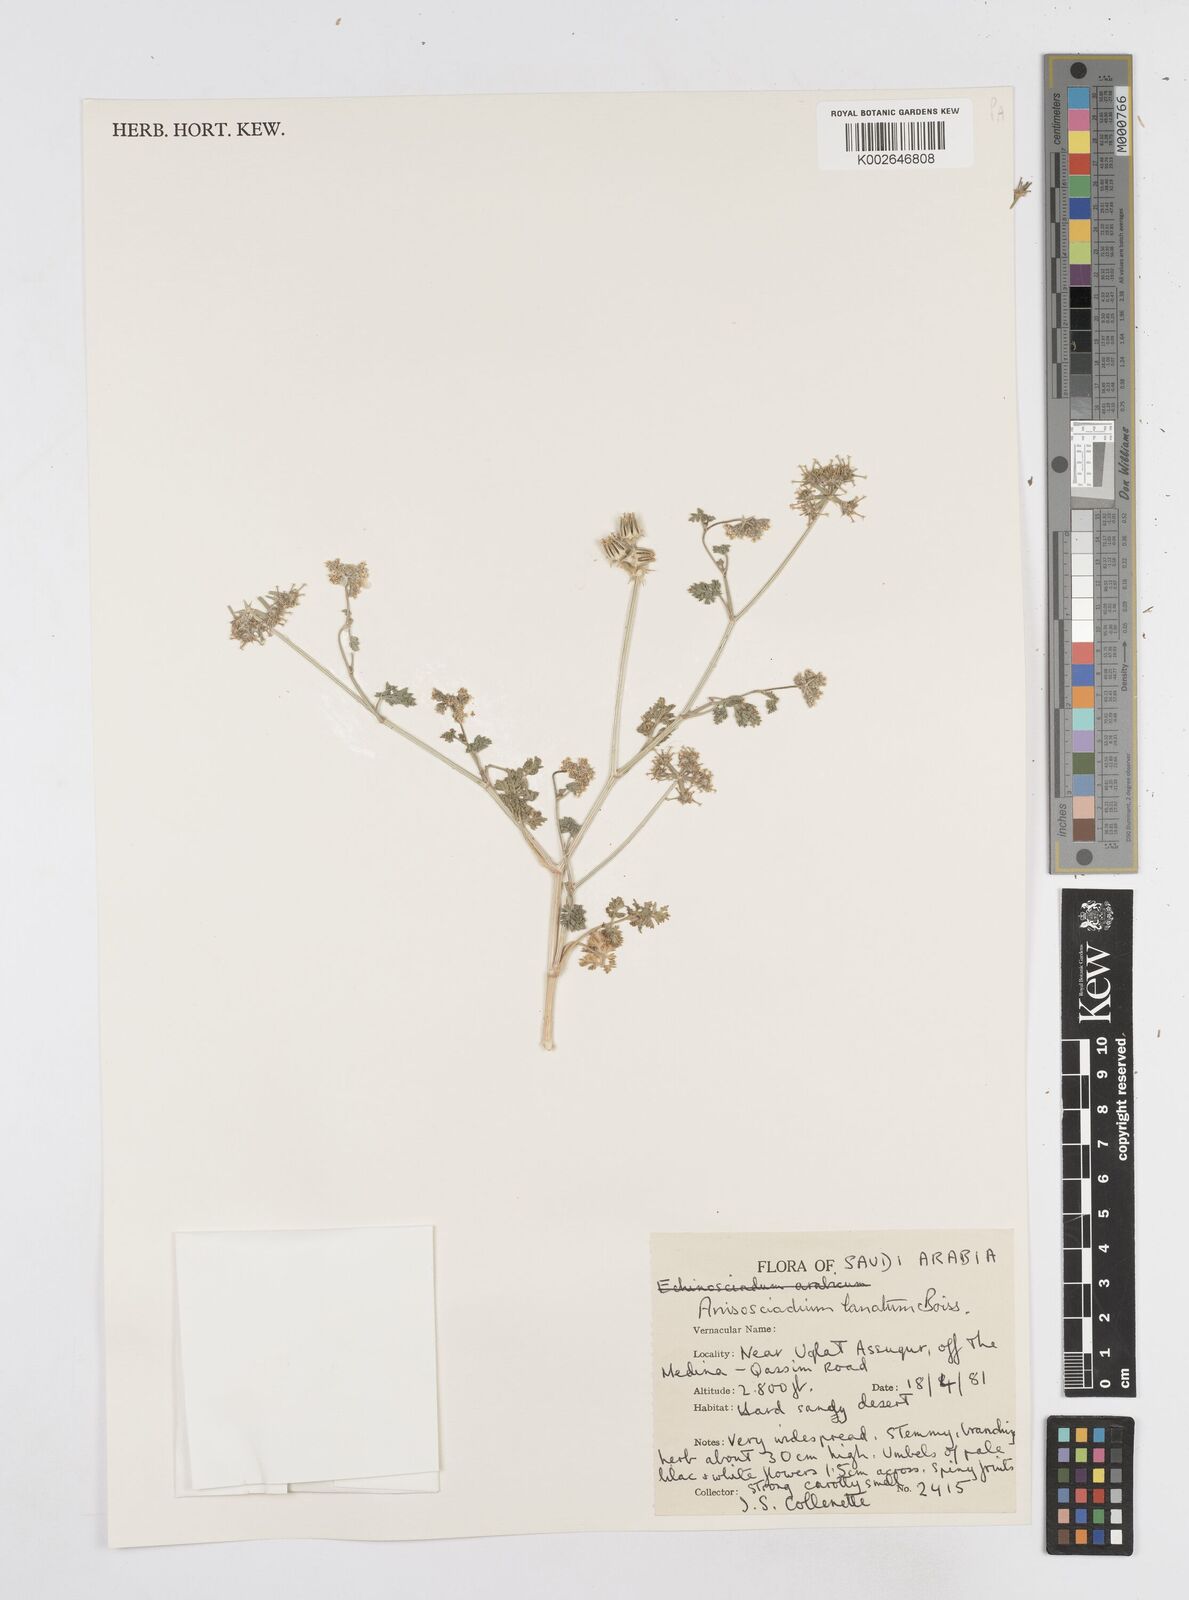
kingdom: Plantae
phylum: Tracheophyta
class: Magnoliopsida
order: Apiales
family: Apiaceae
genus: Anisosciadium
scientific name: Anisosciadium lanatum
